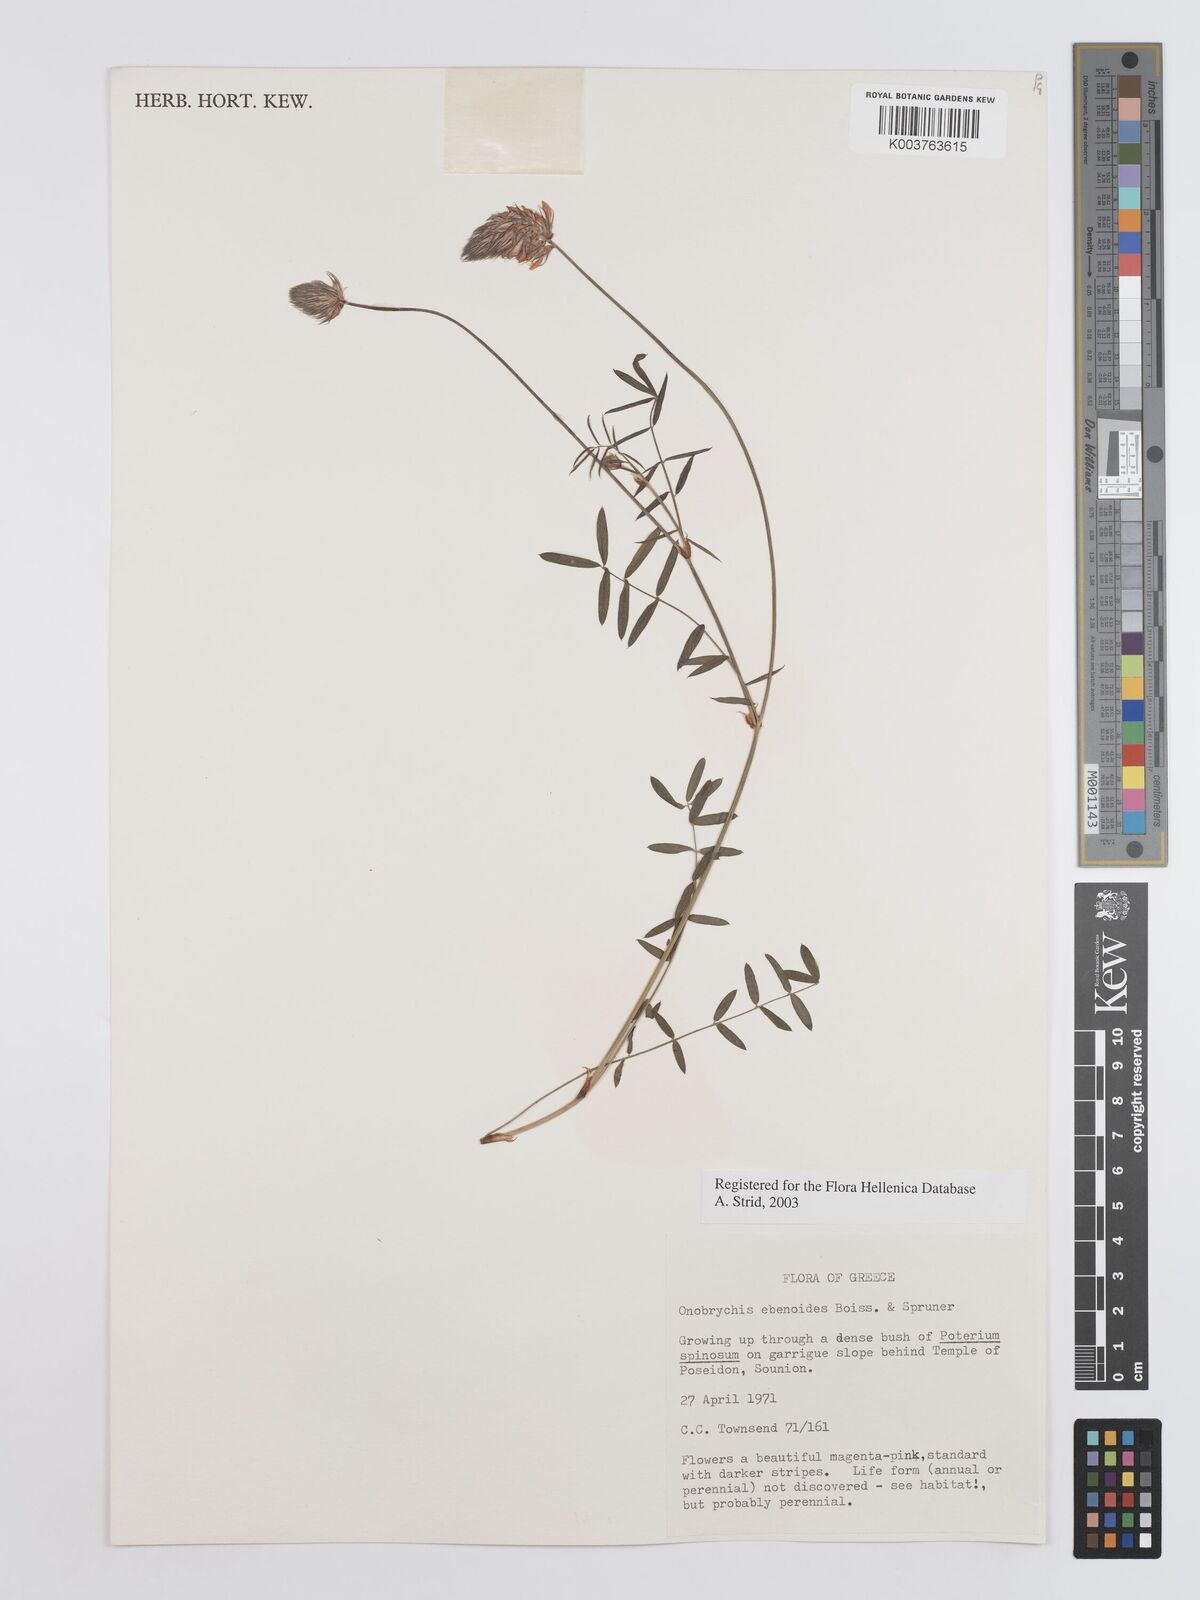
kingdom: Plantae
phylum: Tracheophyta
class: Magnoliopsida
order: Fabales
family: Fabaceae
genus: Onobrychis
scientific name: Onobrychis ebenoides
